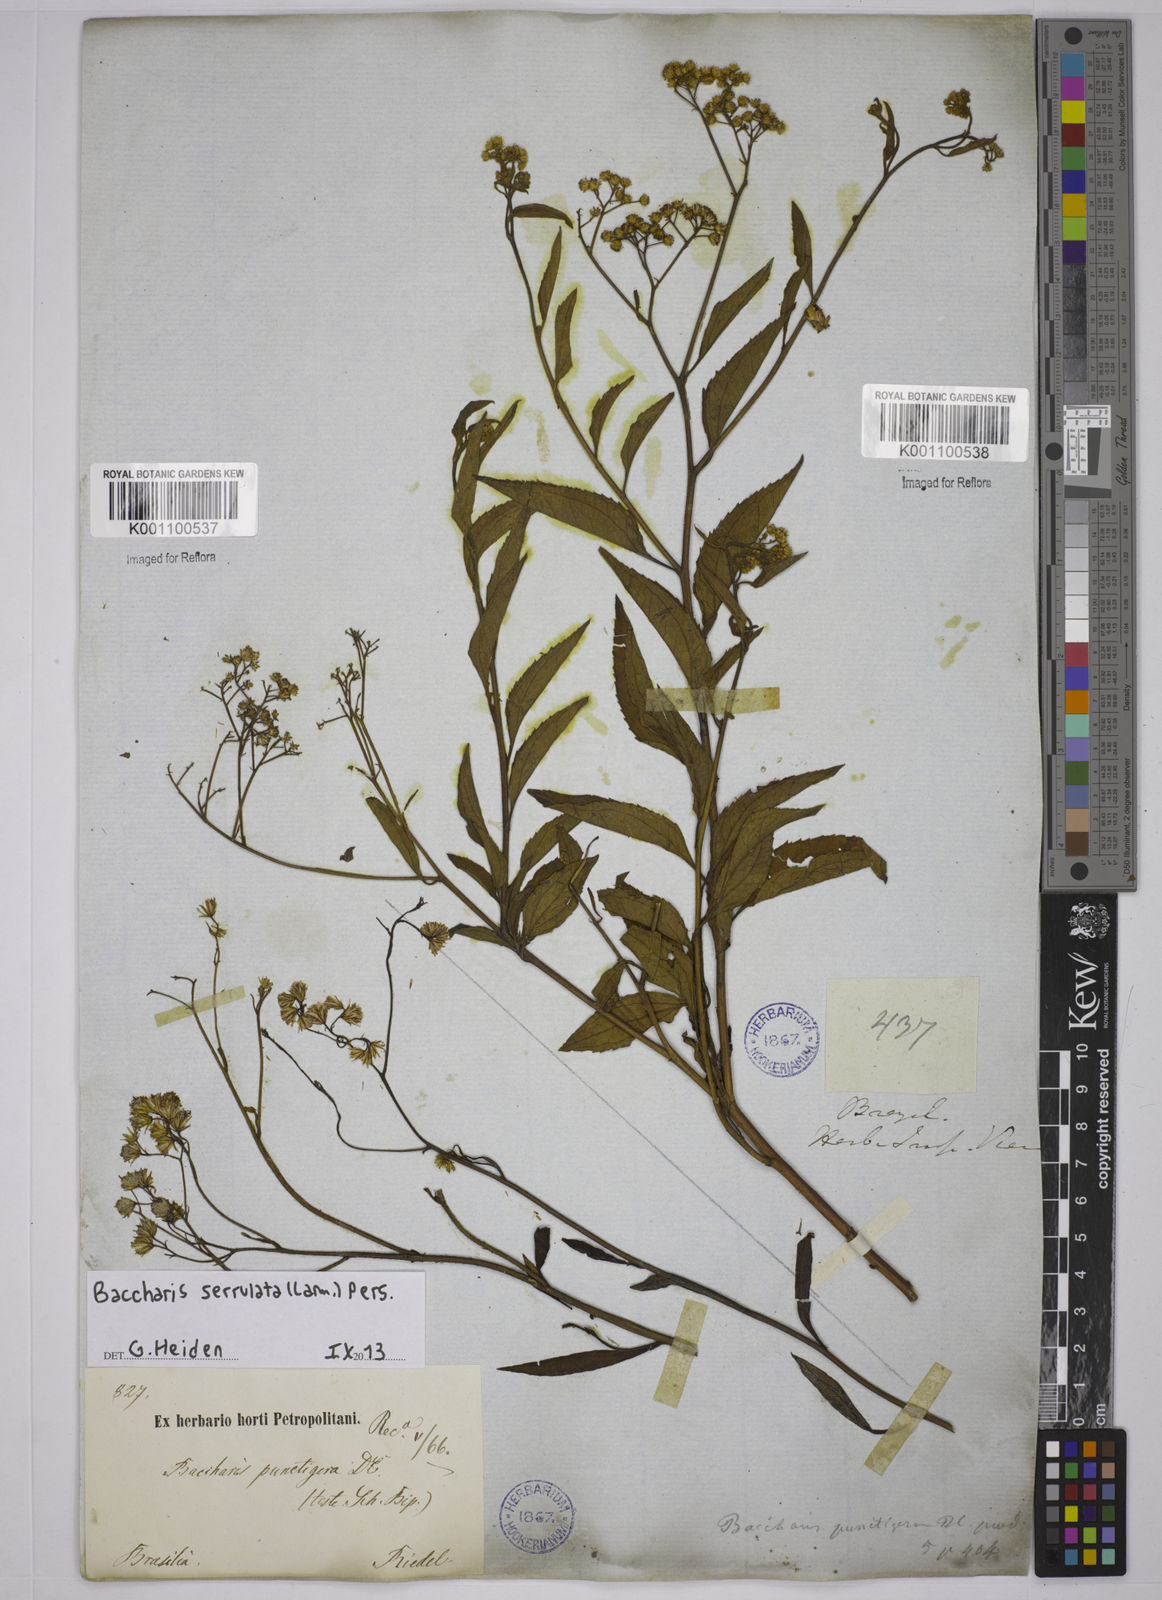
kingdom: Plantae
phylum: Tracheophyta
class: Magnoliopsida
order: Asterales
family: Asteraceae
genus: Baccharis
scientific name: Baccharis serrulata
